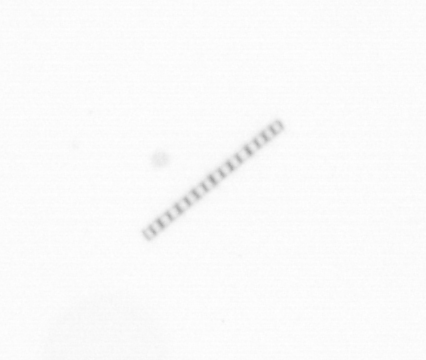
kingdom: Chromista
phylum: Ochrophyta
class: Bacillariophyceae
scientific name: Bacillariophyceae
